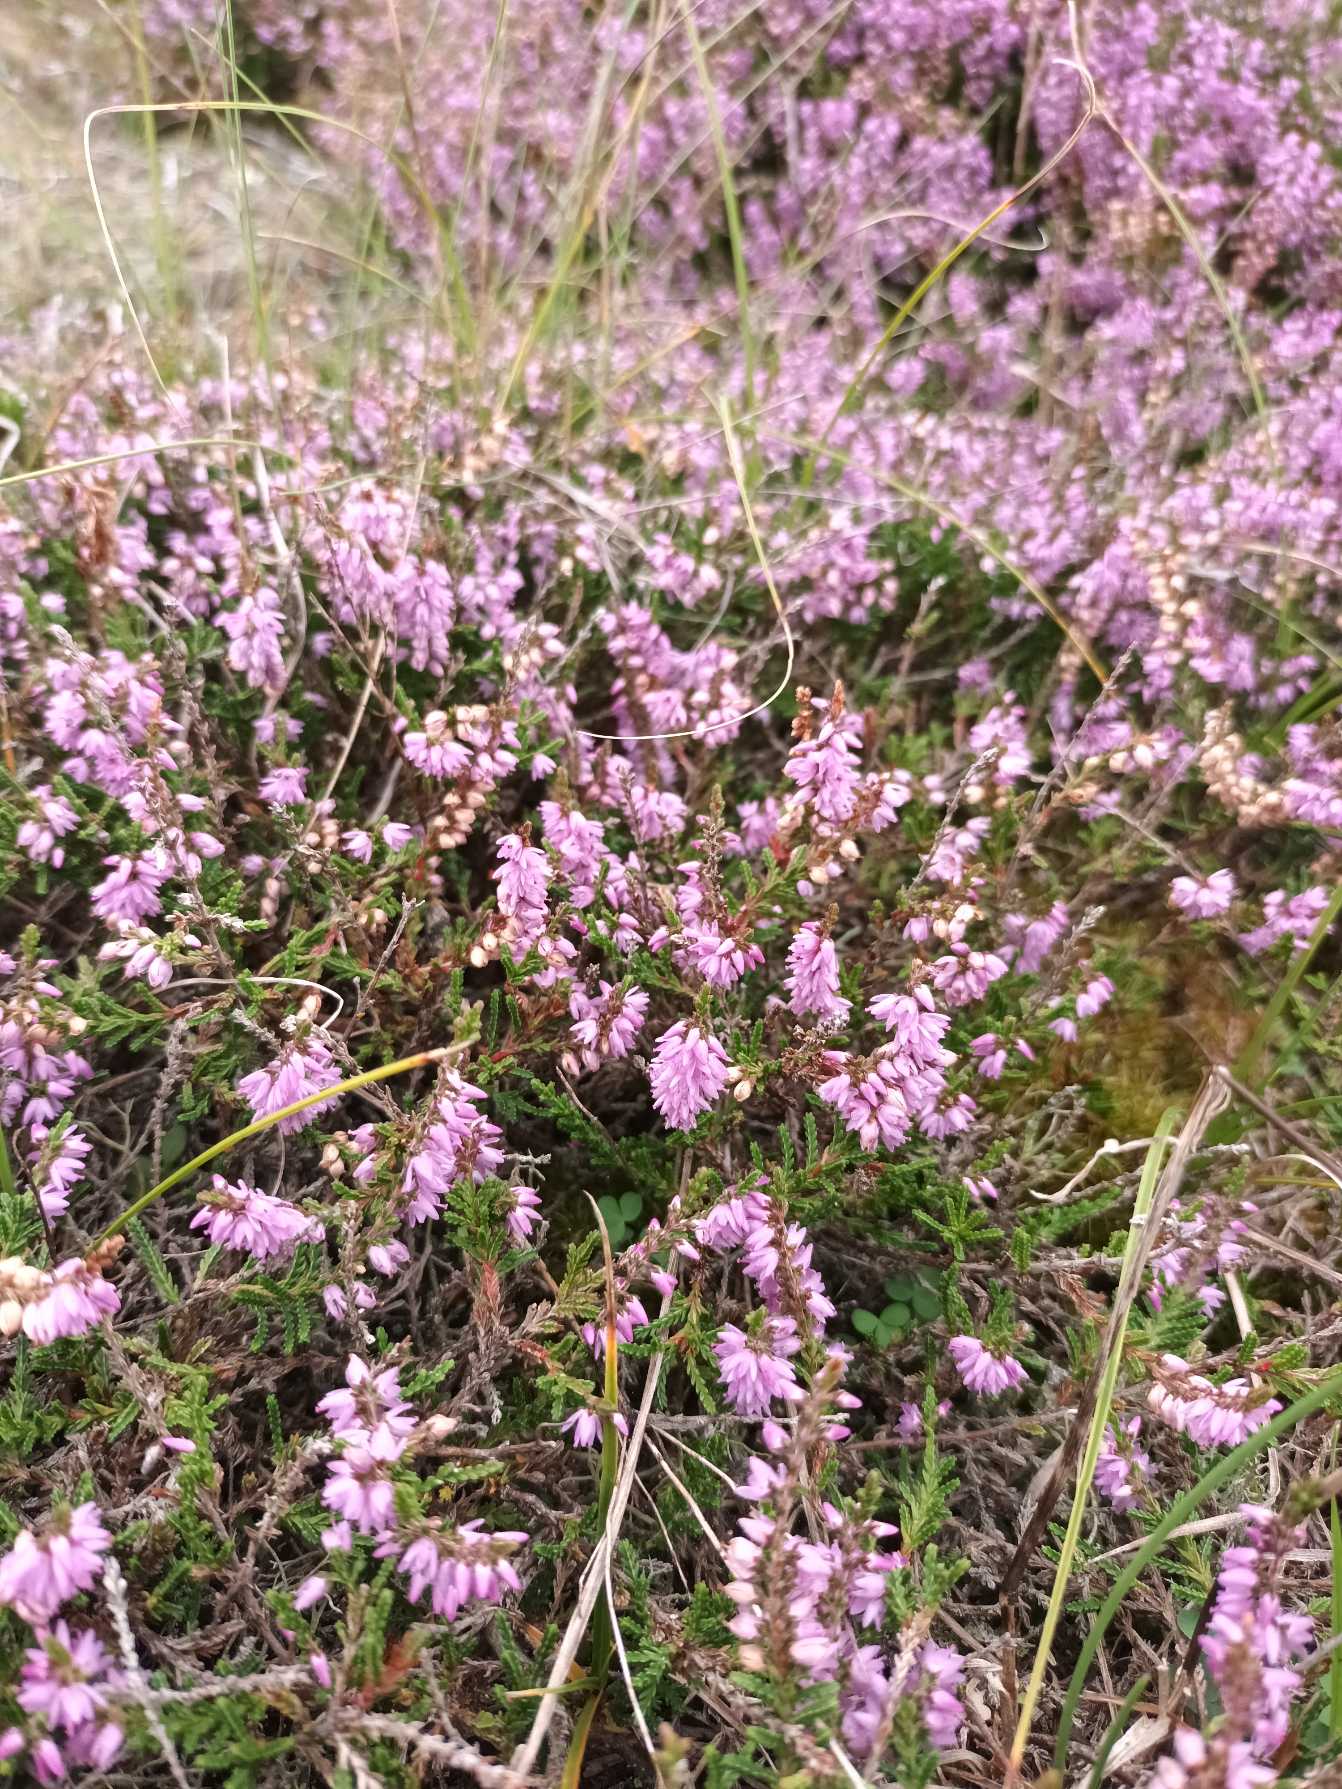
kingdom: Plantae
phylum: Tracheophyta
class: Magnoliopsida
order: Ericales
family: Ericaceae
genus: Calluna
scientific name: Calluna vulgaris
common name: Hedelyng
